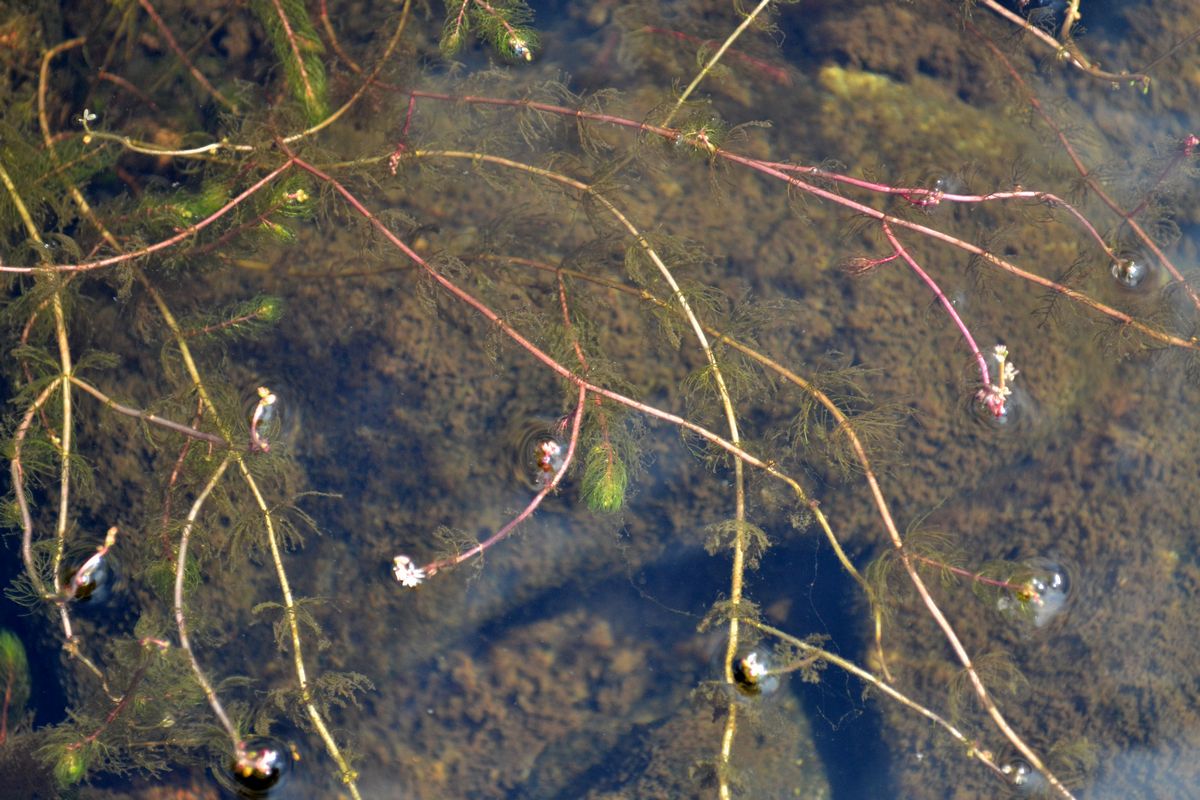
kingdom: Plantae
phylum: Tracheophyta
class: Magnoliopsida
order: Saxifragales
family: Haloragaceae
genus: Myriophyllum
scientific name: Myriophyllum sibiricum
